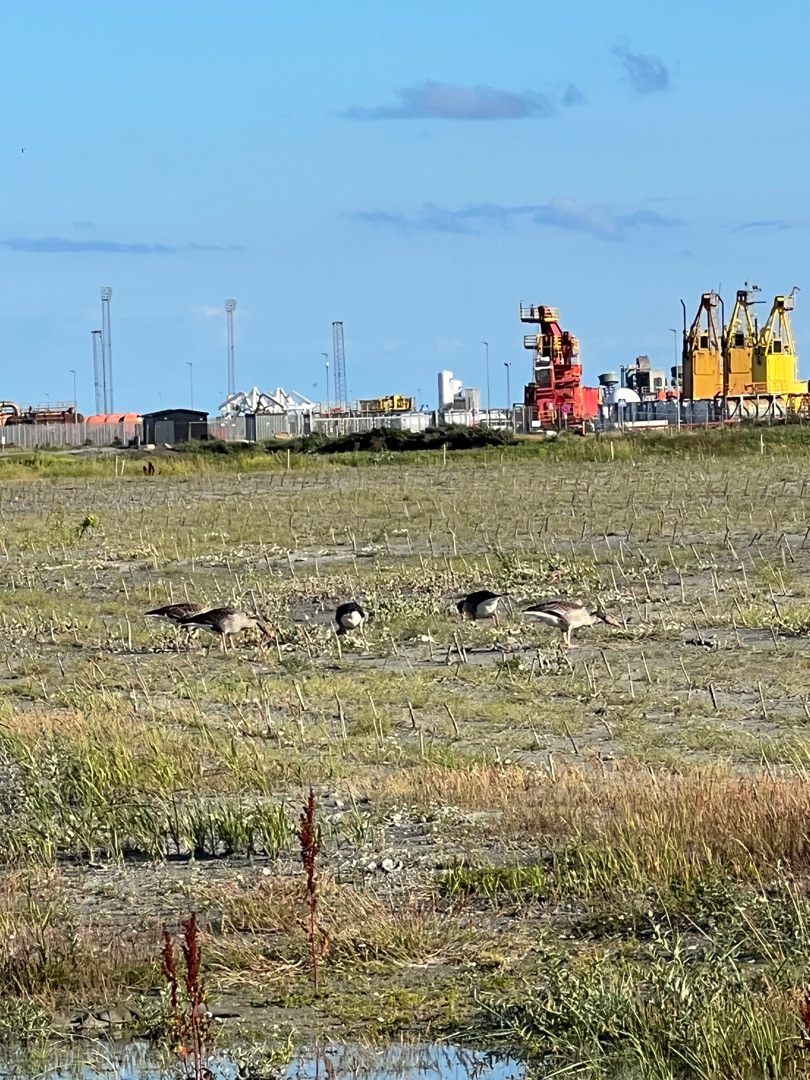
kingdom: Animalia
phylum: Chordata
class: Aves
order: Anseriformes
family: Anatidae
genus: Anser
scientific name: Anser anser
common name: Grågås
